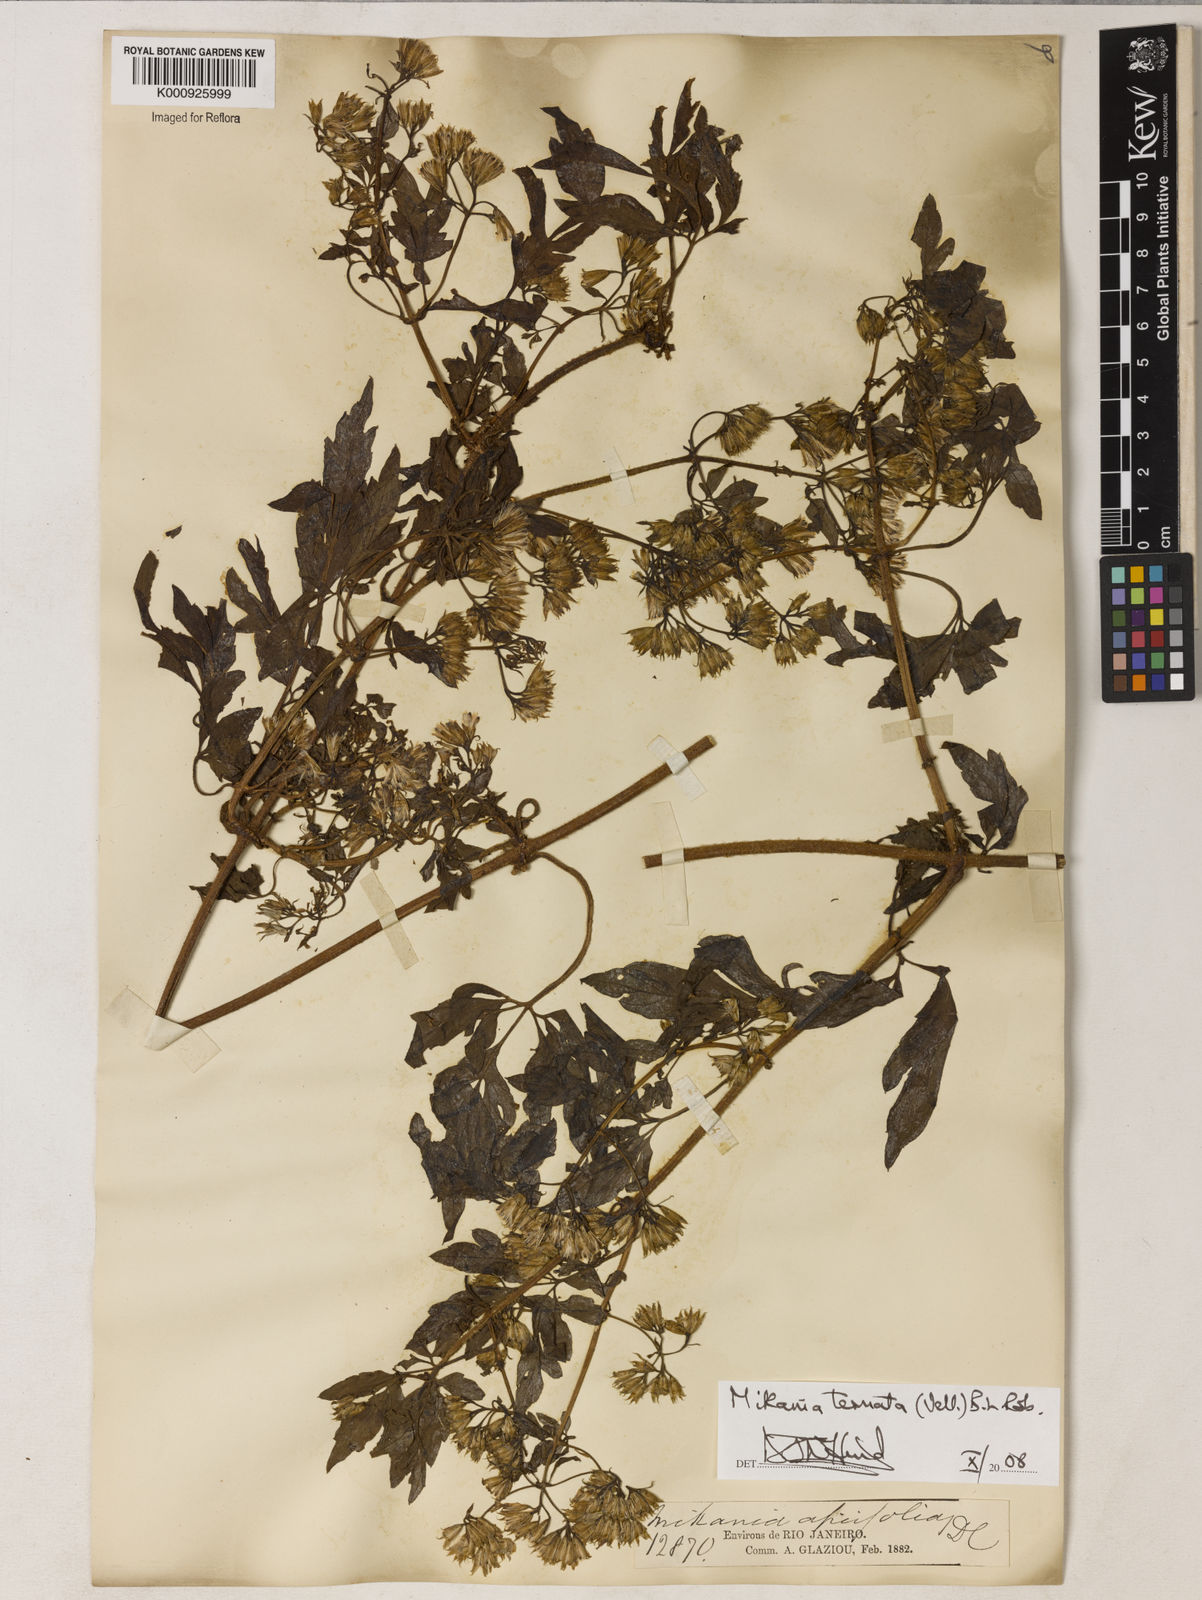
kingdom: Plantae
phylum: Tracheophyta
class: Magnoliopsida
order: Asterales
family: Asteraceae
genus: Mikania
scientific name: Mikania ternata
